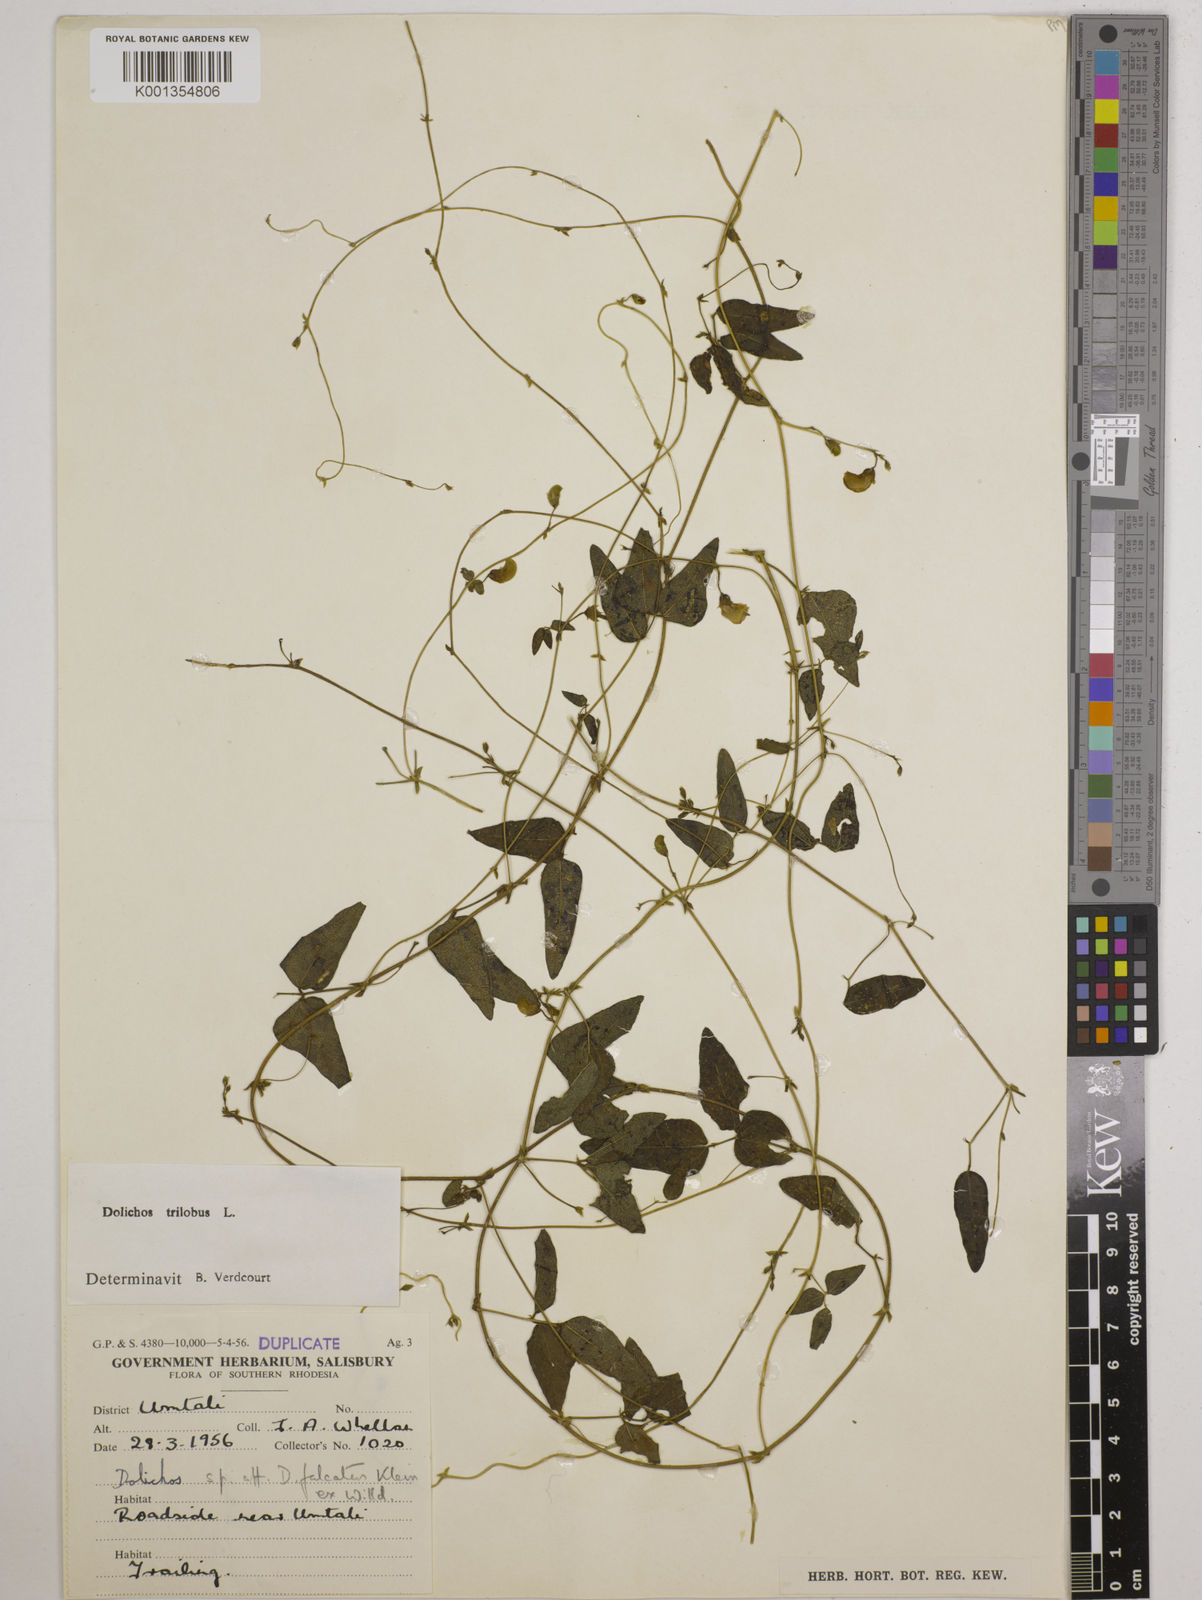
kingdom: Plantae
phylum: Tracheophyta
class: Magnoliopsida
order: Fabales
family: Fabaceae
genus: Dolichos
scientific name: Dolichos
